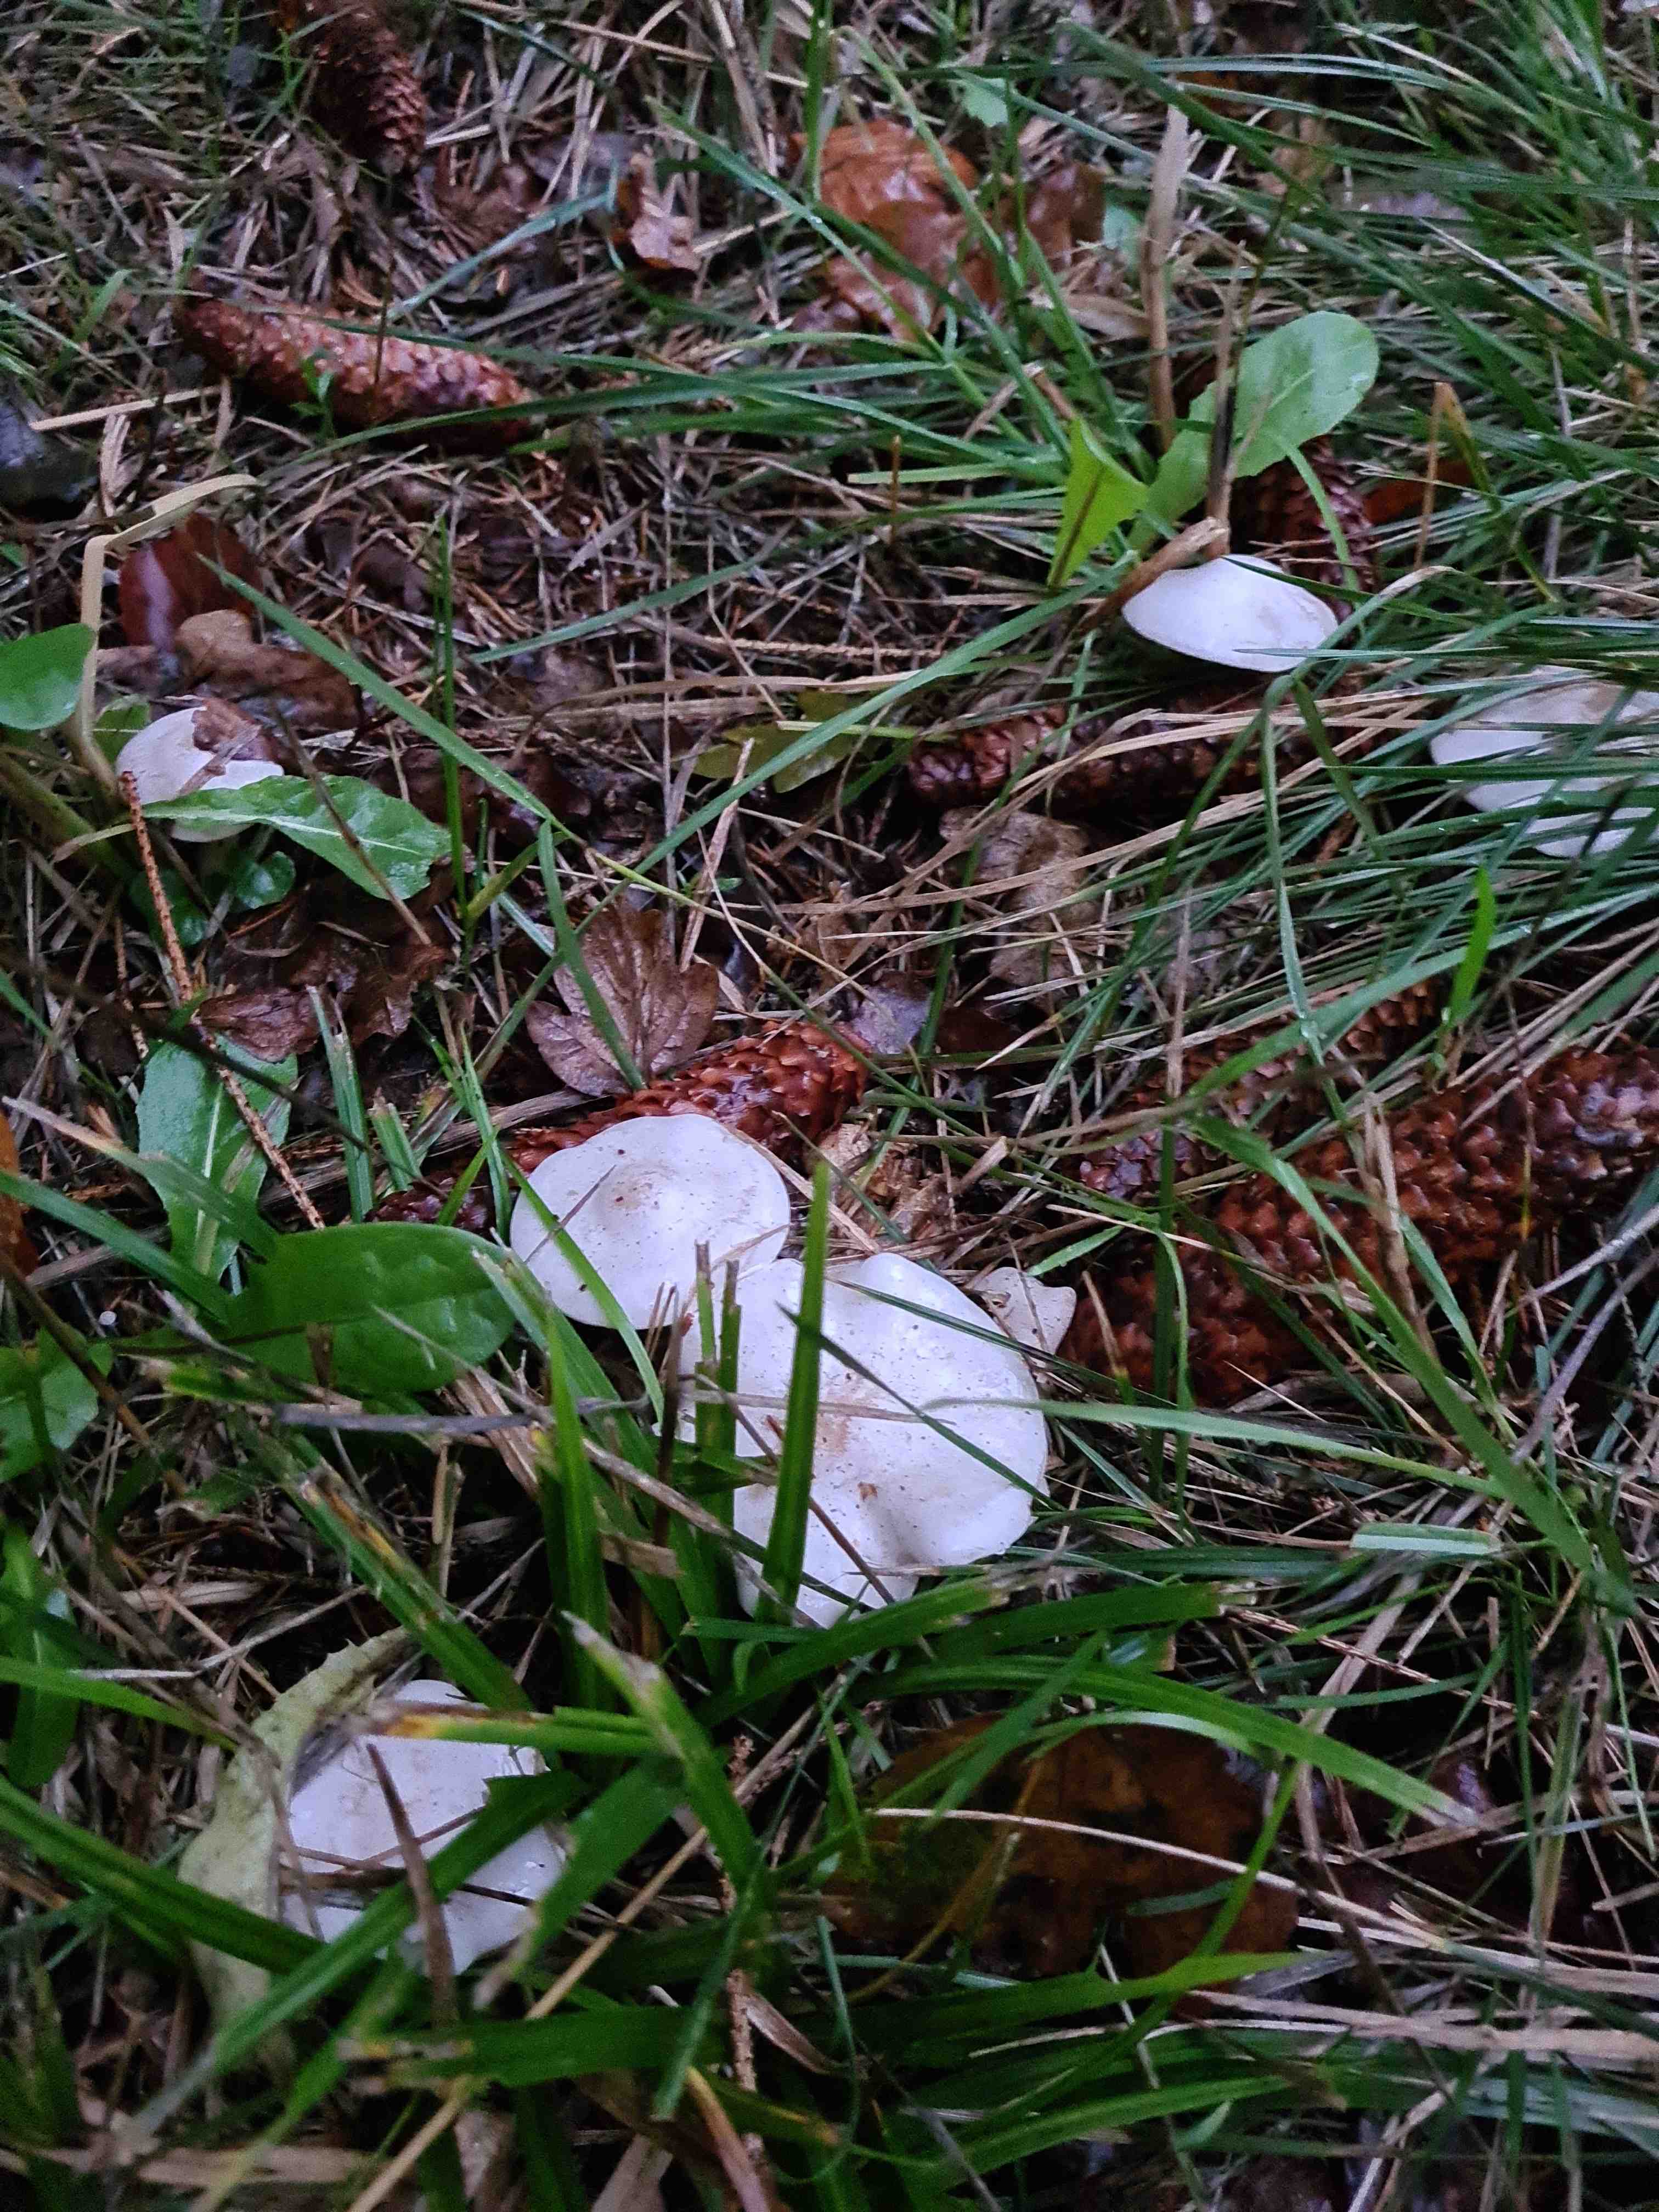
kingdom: Fungi
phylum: Basidiomycota
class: Agaricomycetes
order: Agaricales
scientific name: Agaricales
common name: champignonordenen
